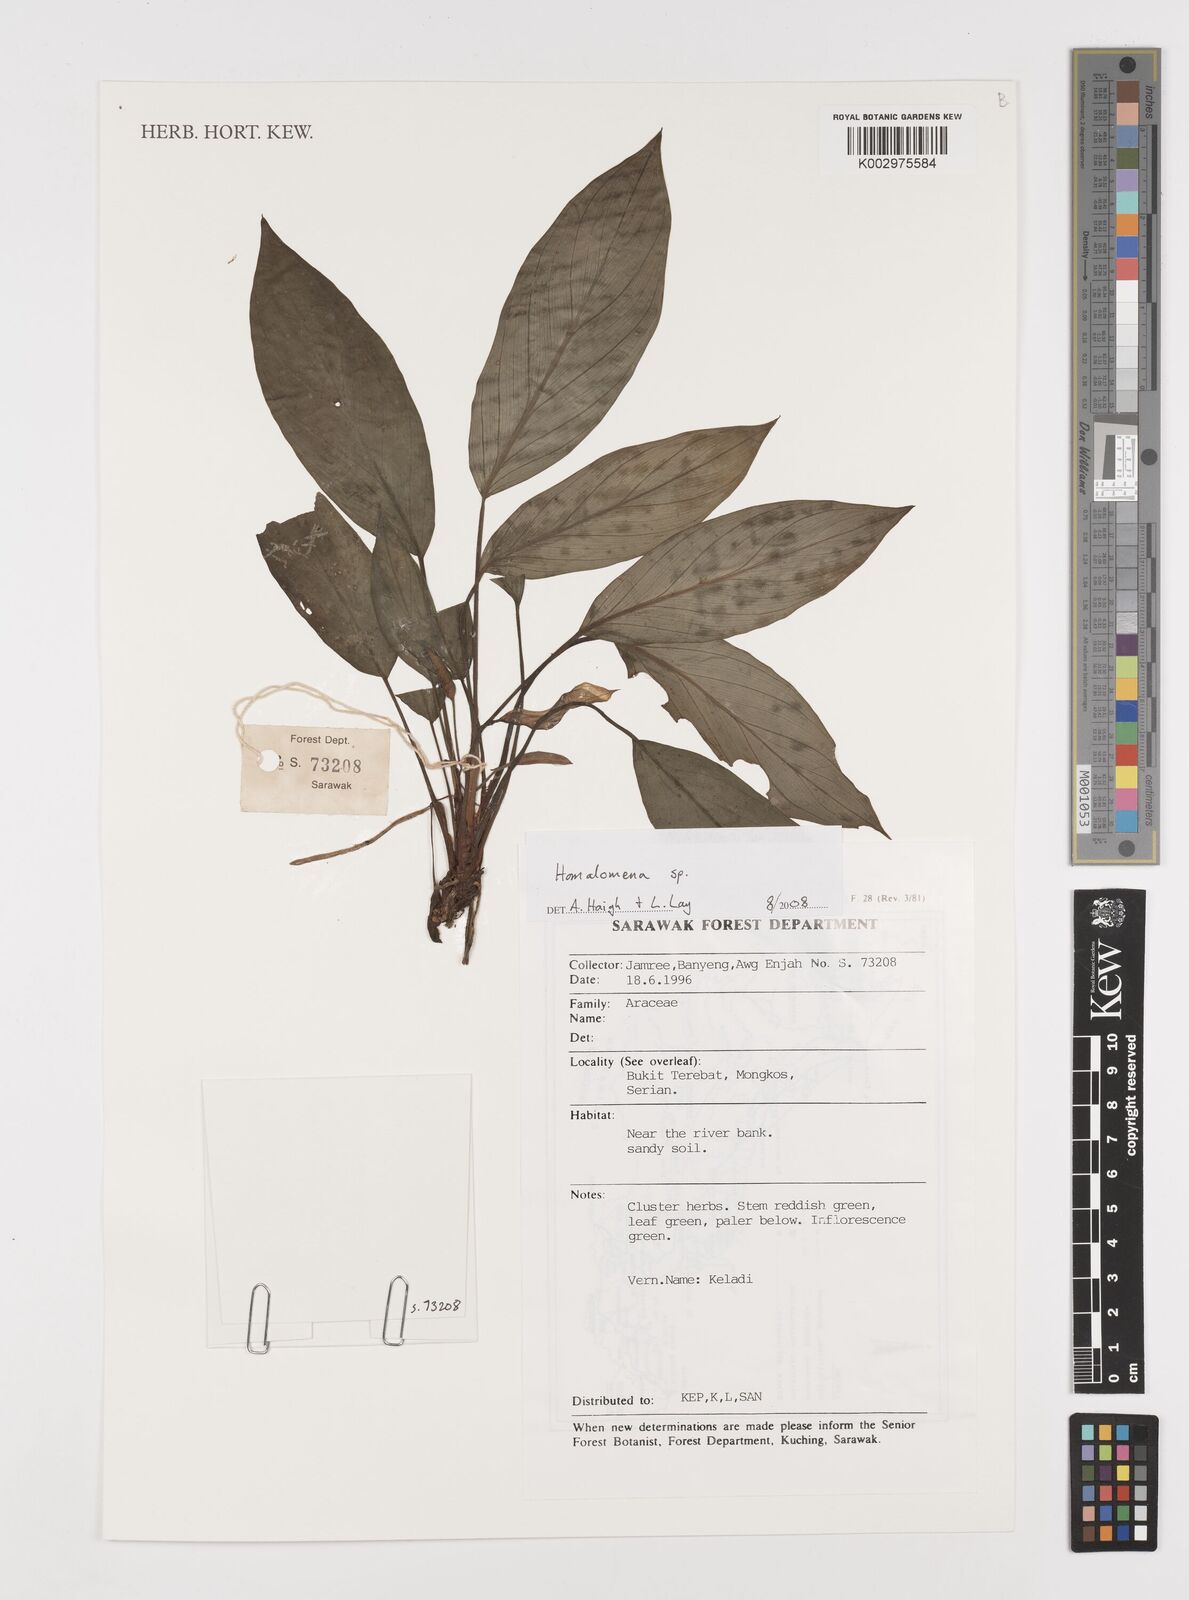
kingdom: Plantae
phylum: Tracheophyta
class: Liliopsida
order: Alismatales
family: Araceae
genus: Homalomena
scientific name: Homalomena
